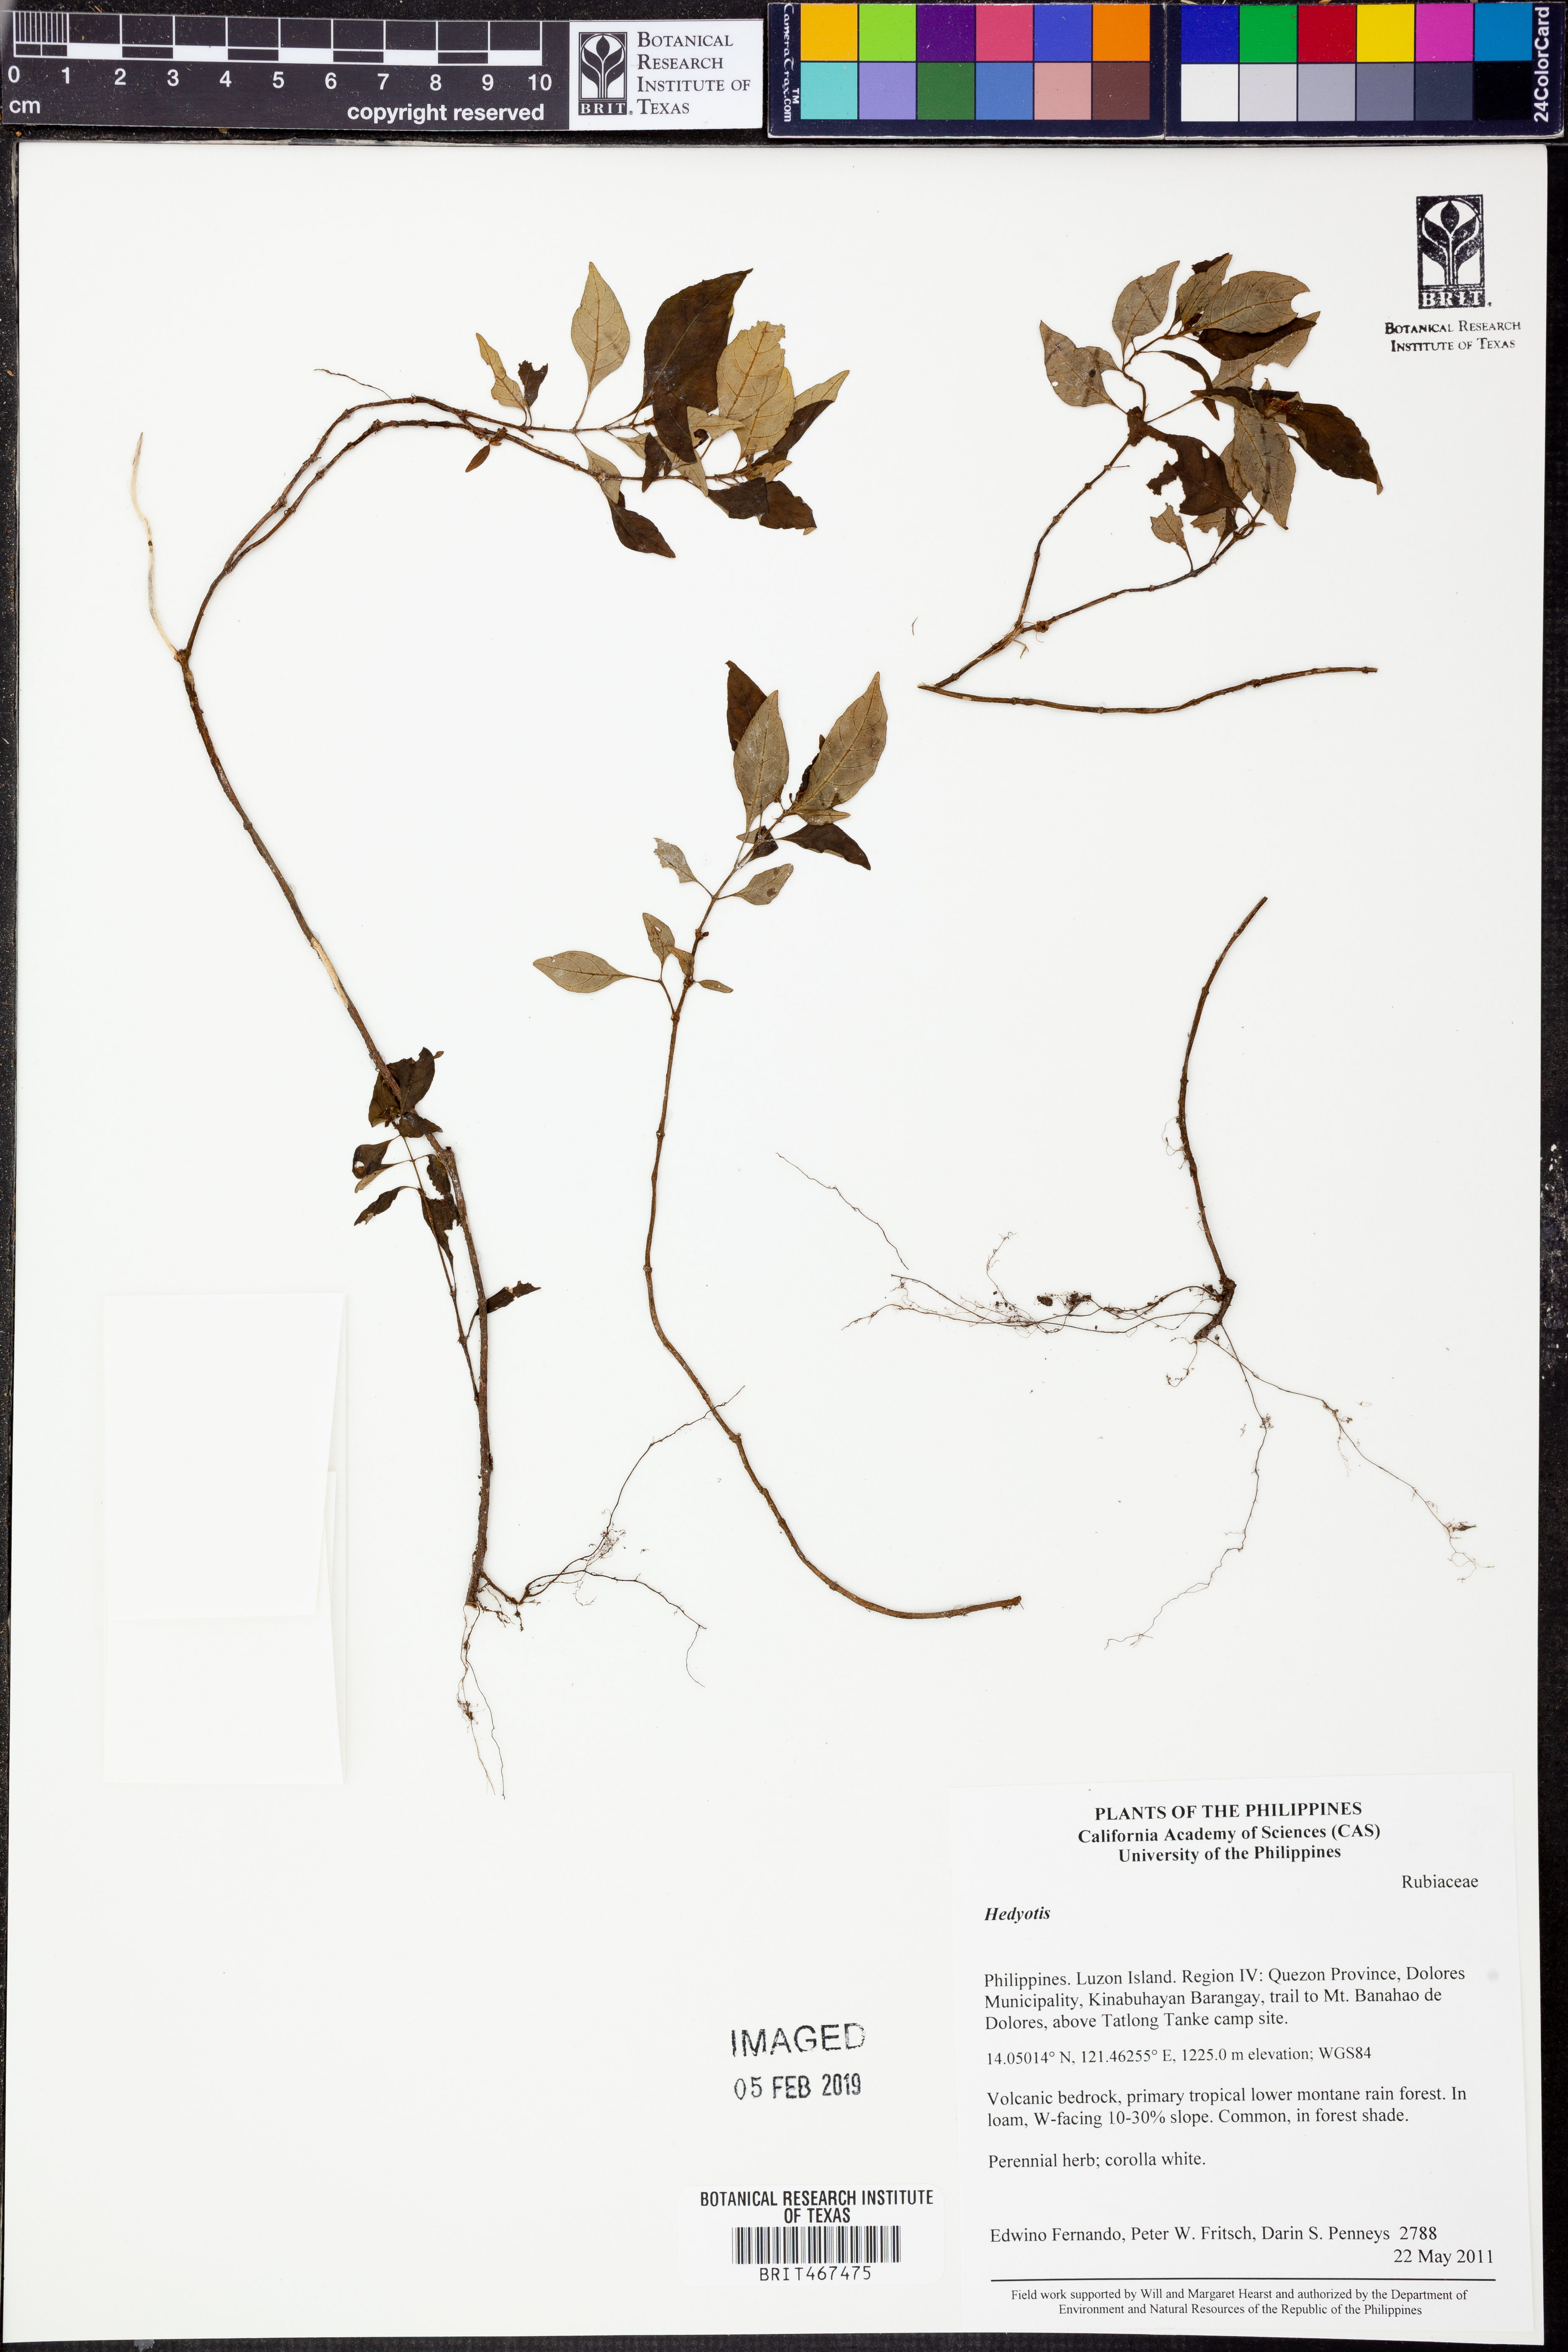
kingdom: Plantae
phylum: Tracheophyta
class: Magnoliopsida
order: Gentianales
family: Rubiaceae
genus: Hedyotis
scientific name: Hedyotis
